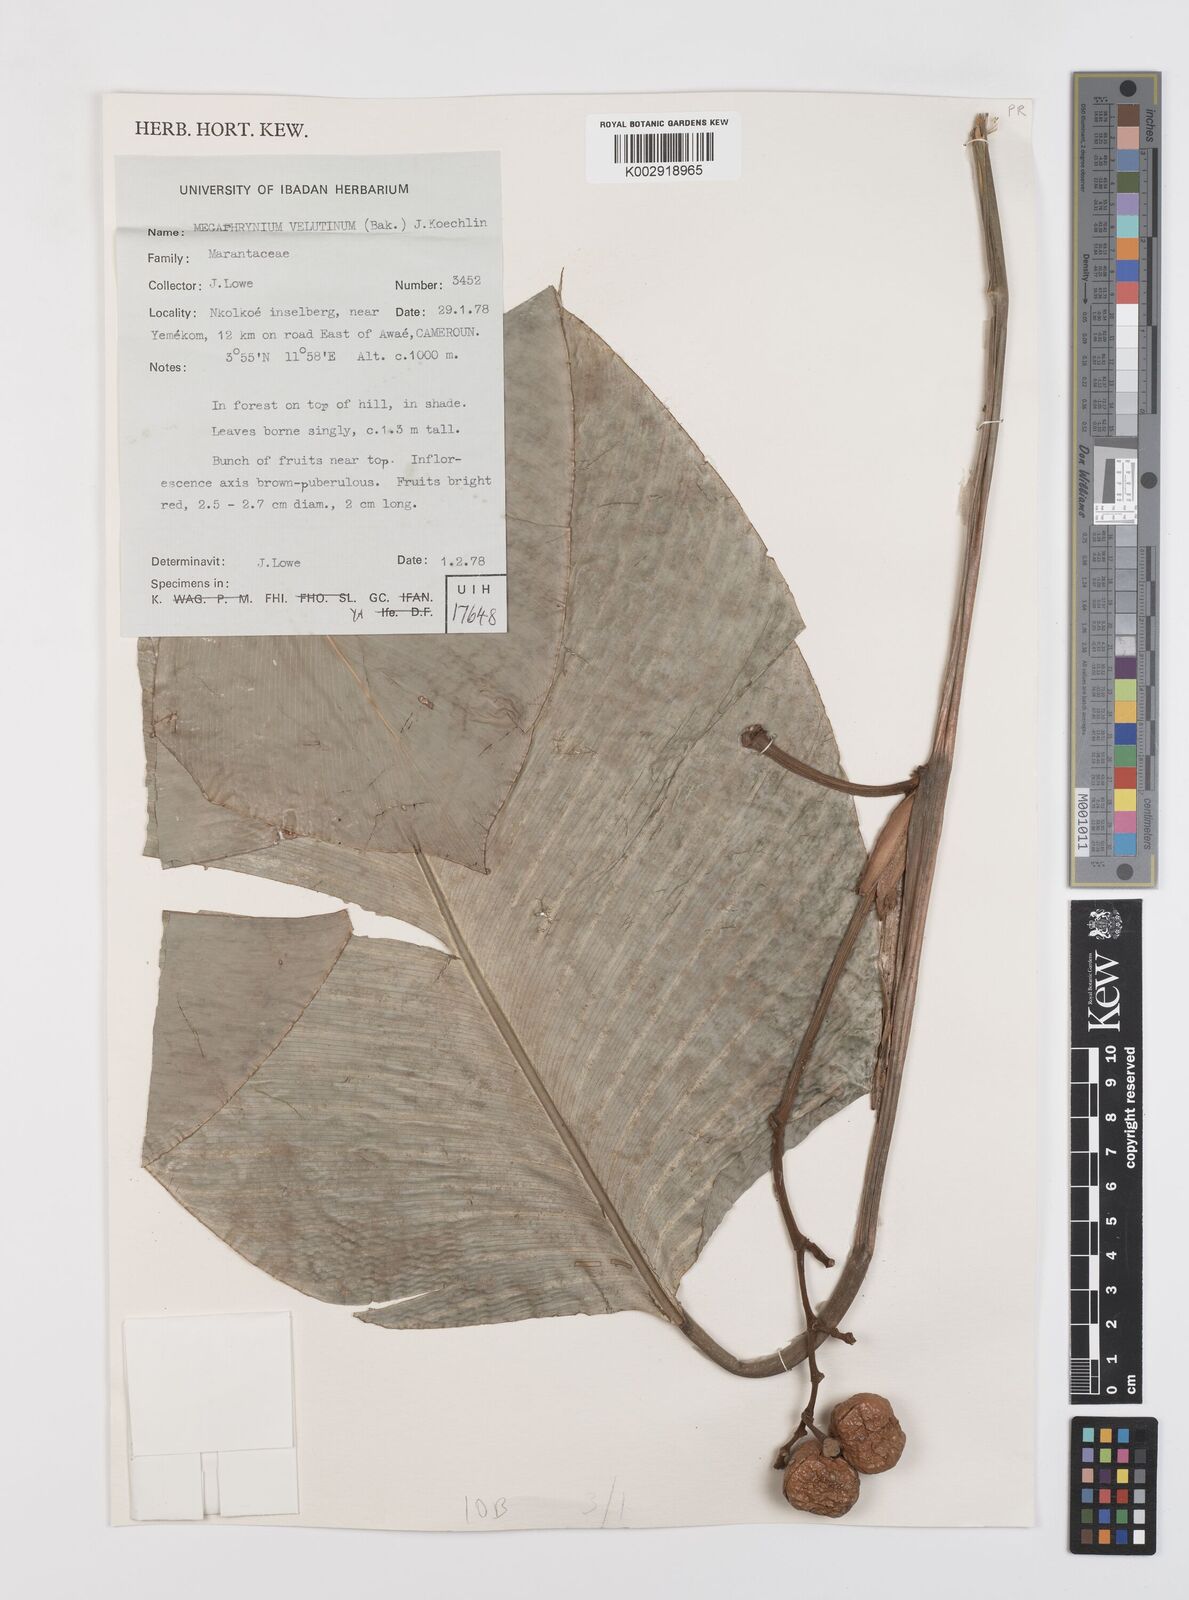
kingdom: Plantae
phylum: Tracheophyta
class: Liliopsida
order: Zingiberales
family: Marantaceae
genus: Megaphrynium
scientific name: Megaphrynium velutinum
